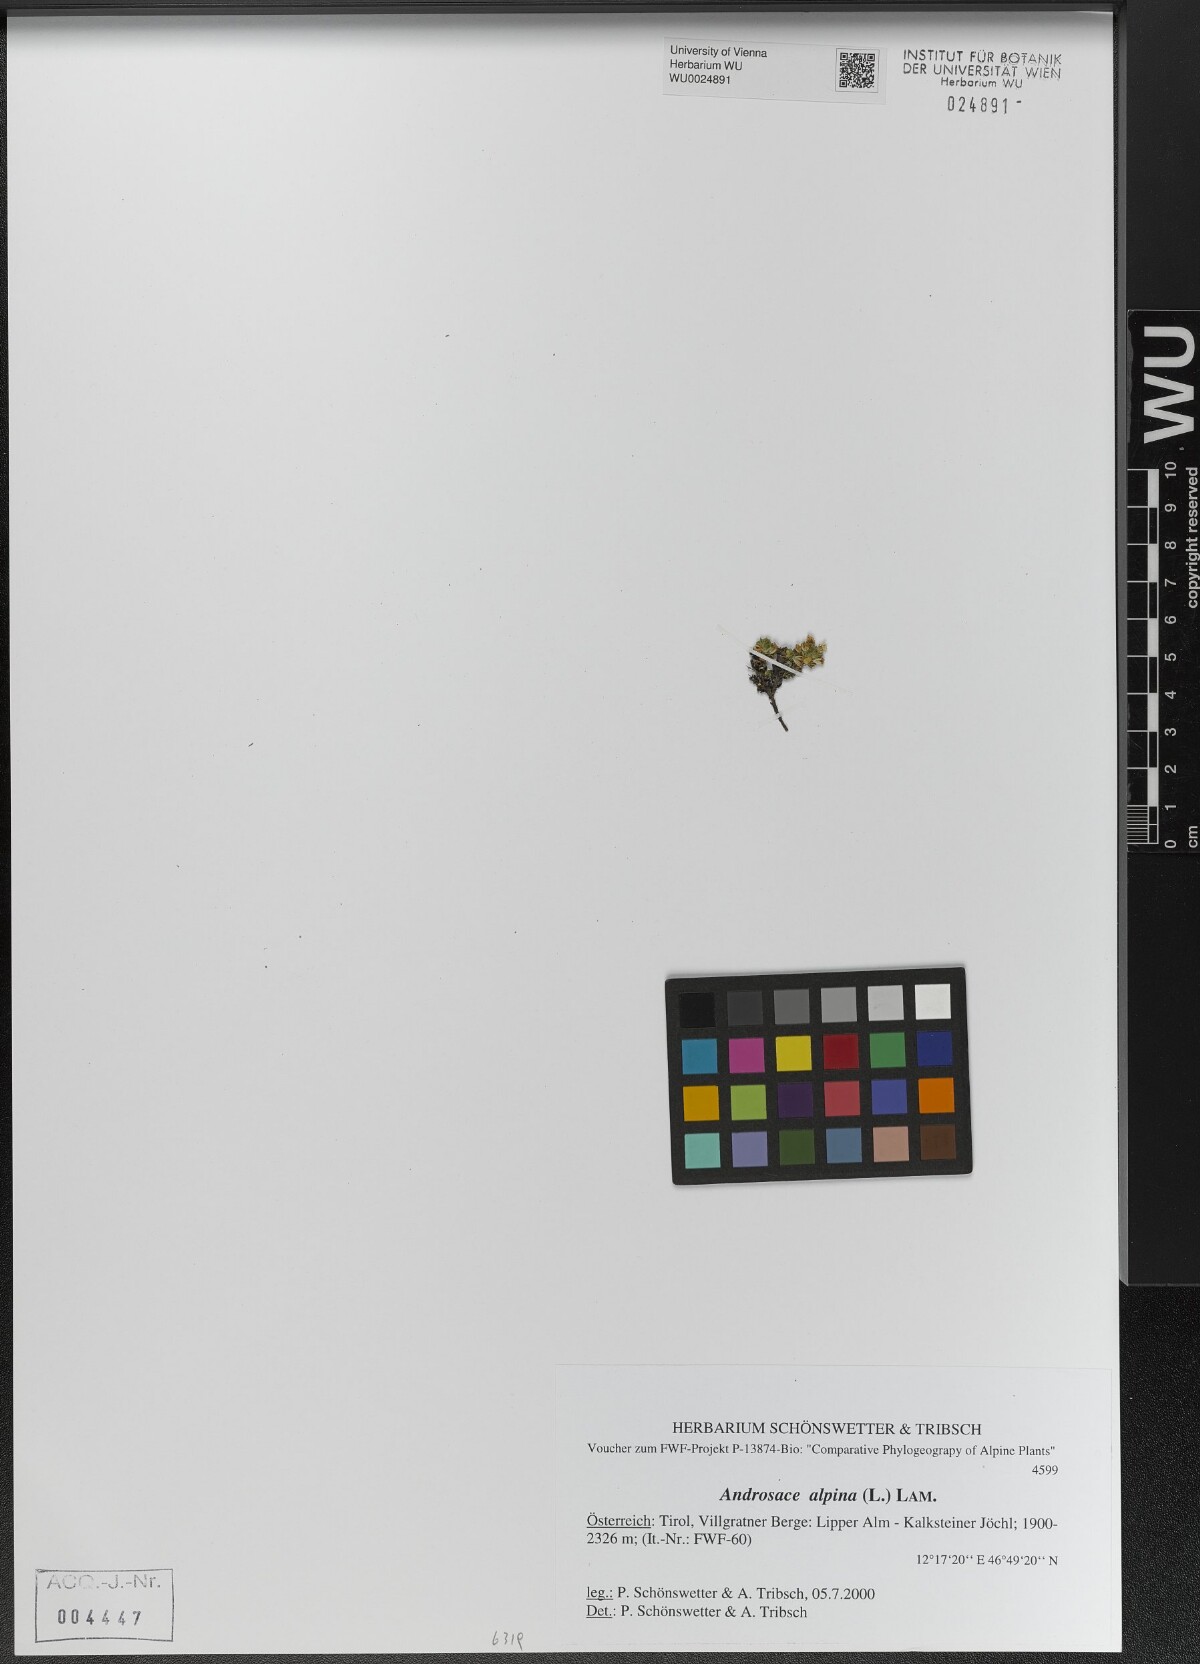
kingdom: Plantae
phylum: Tracheophyta
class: Magnoliopsida
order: Ericales
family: Primulaceae
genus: Androsace
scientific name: Androsace alpina
